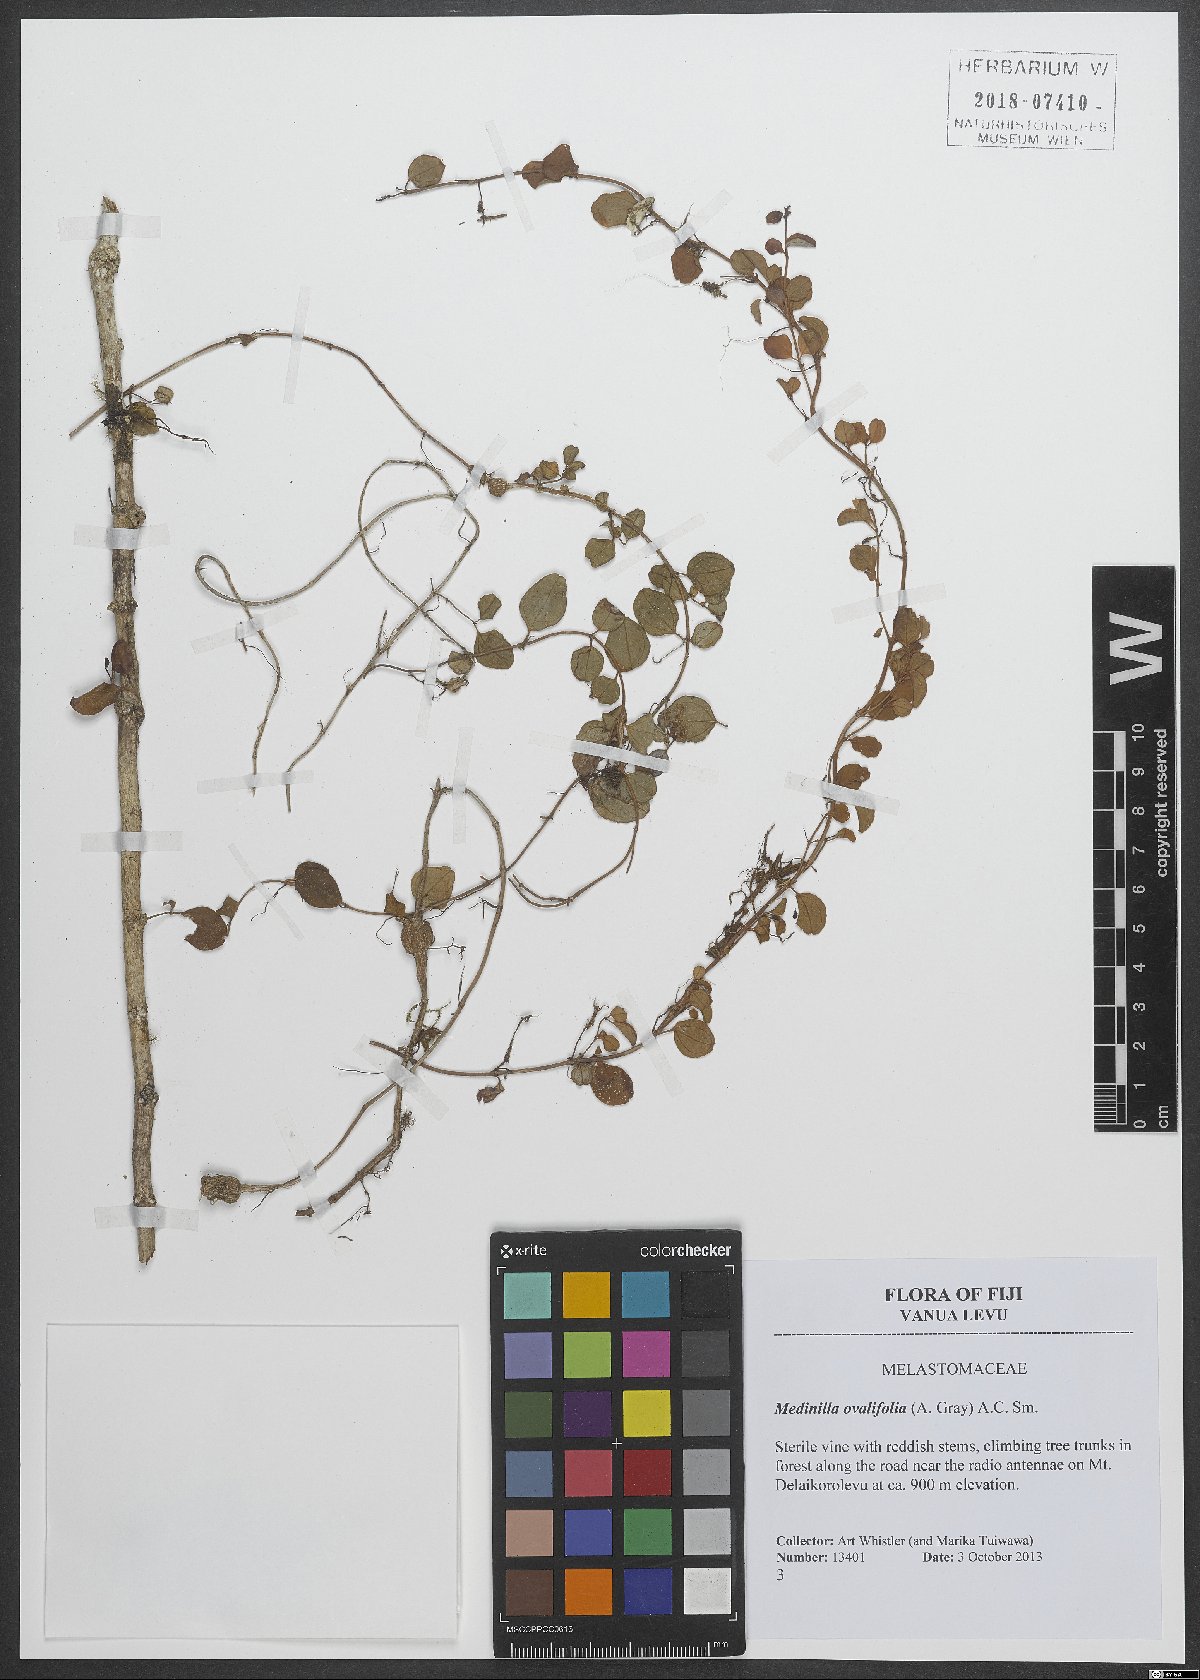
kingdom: Plantae
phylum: Tracheophyta
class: Magnoliopsida
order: Myrtales
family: Melastomataceae
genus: Medinilla
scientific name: Medinilla ovalifolia
